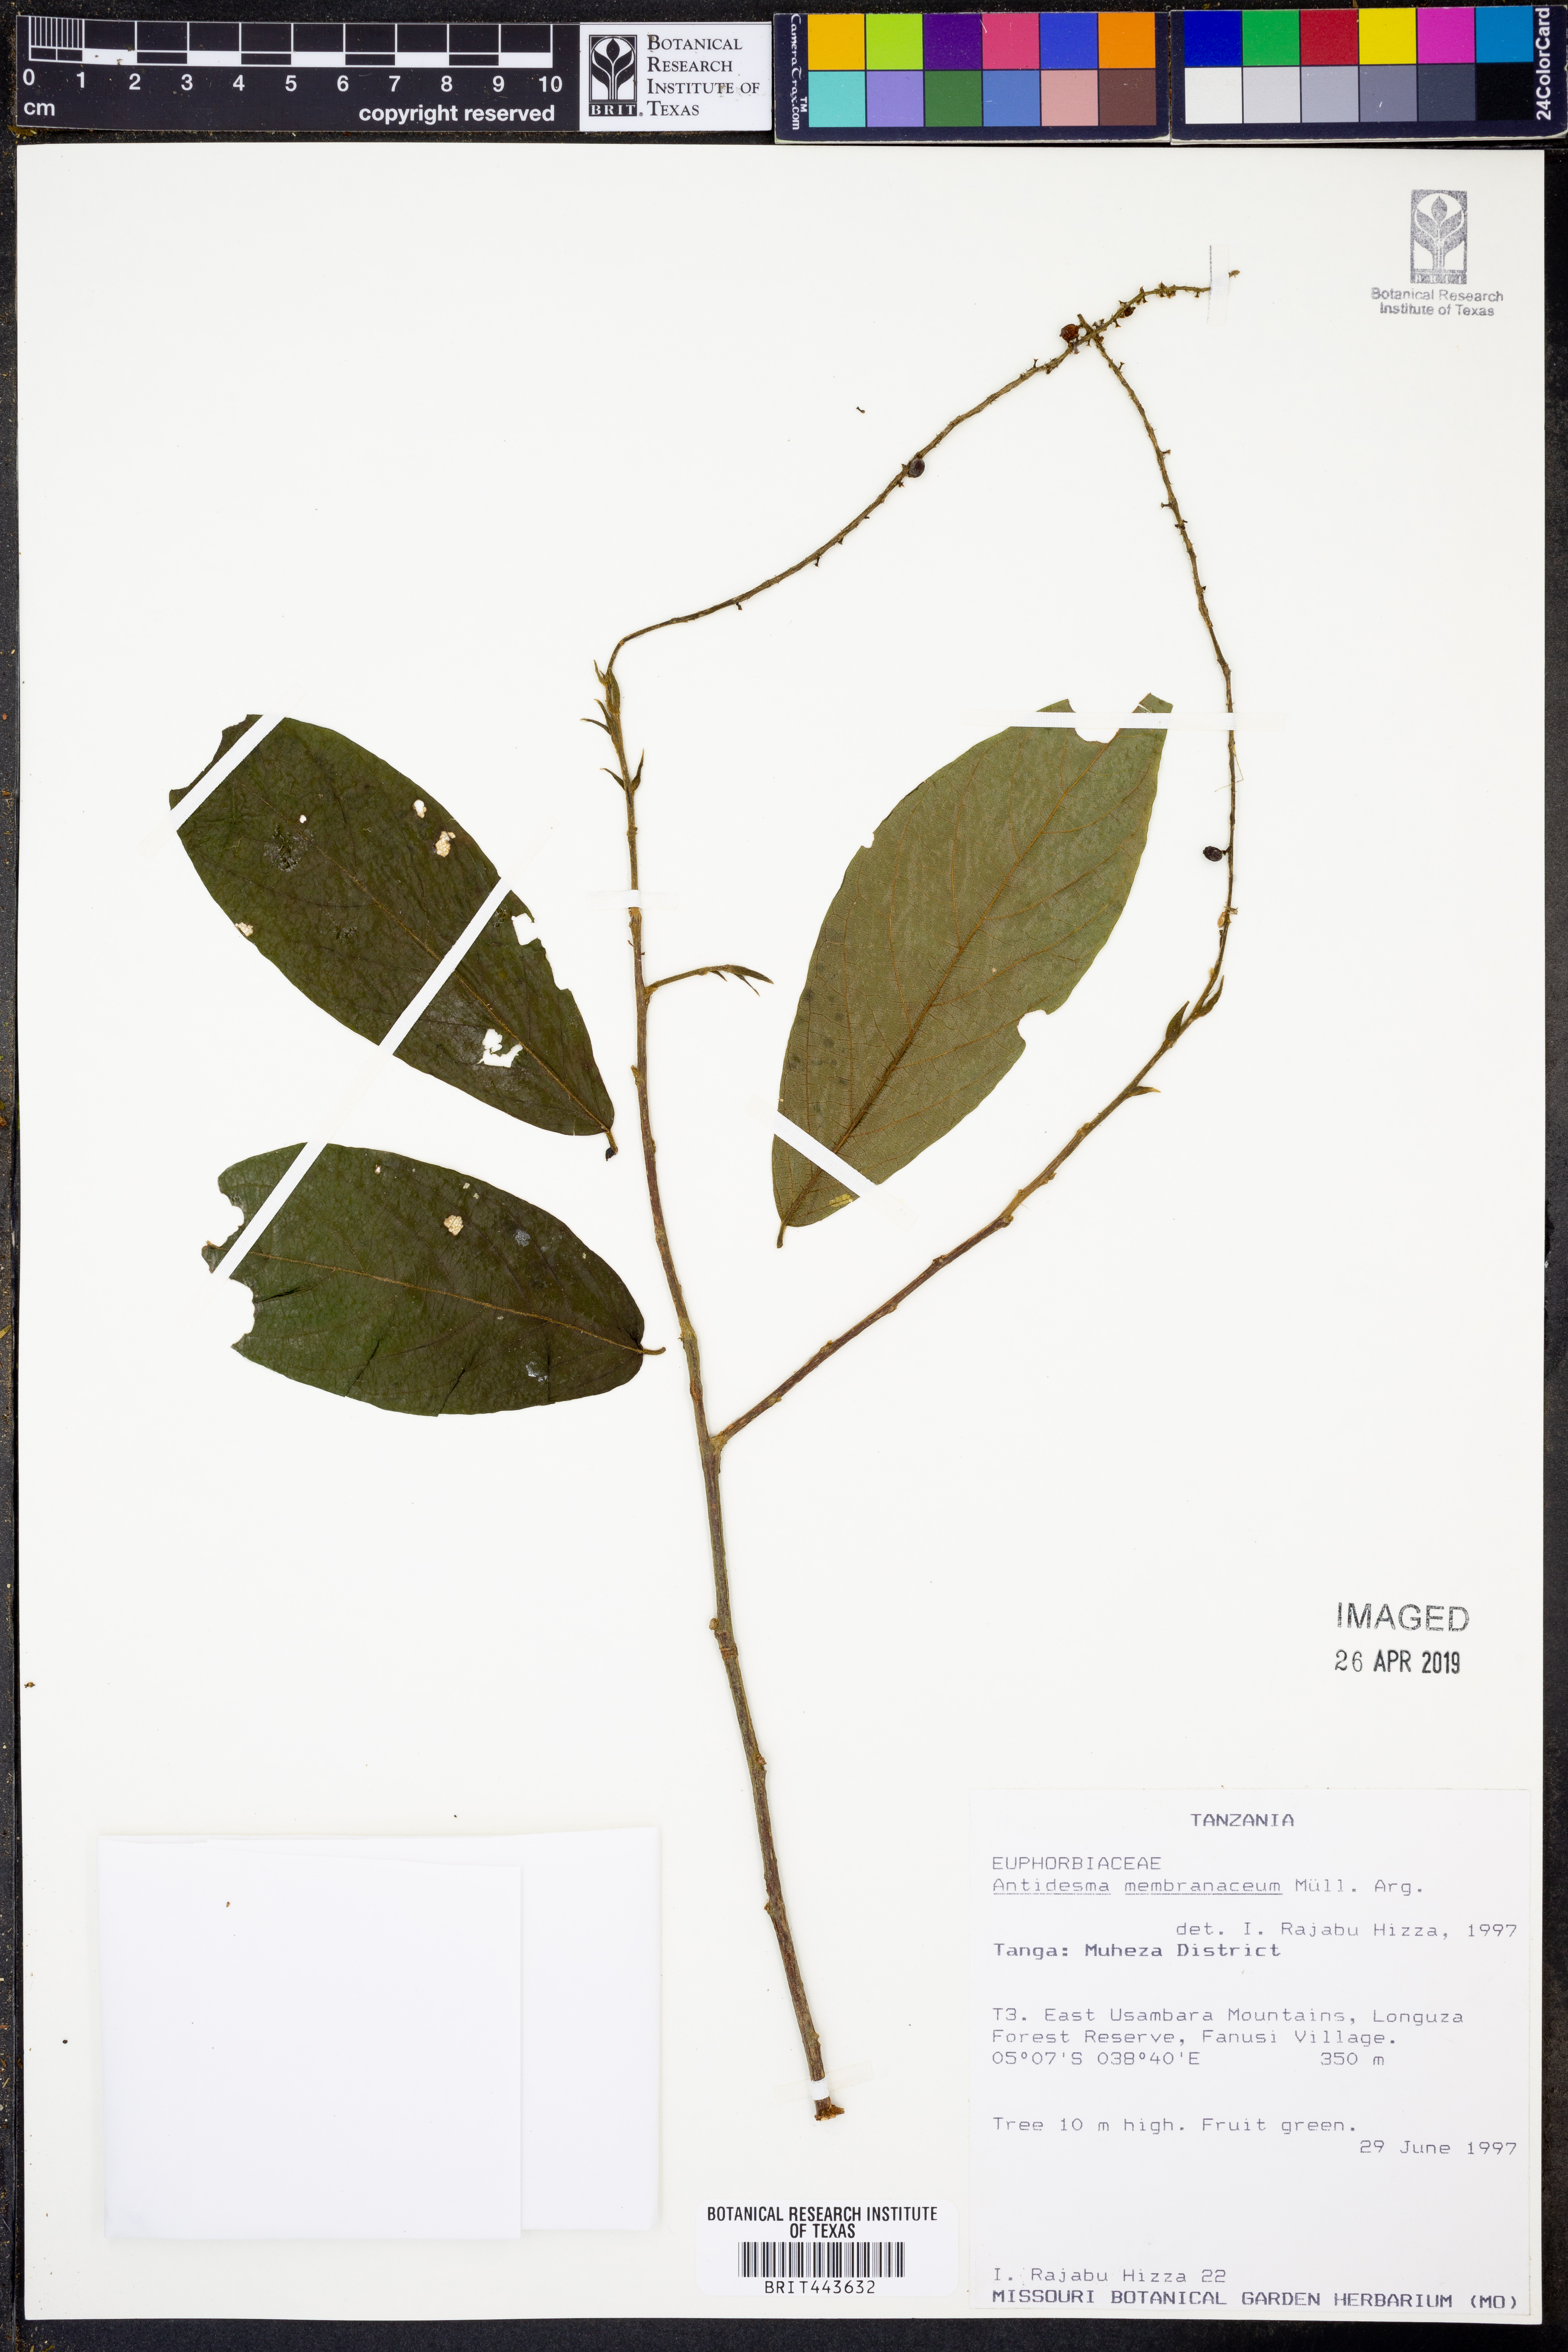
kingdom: Plantae
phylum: Tracheophyta
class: Magnoliopsida
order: Malpighiales
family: Phyllanthaceae
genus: Antidesma
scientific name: Antidesma membranaceum
